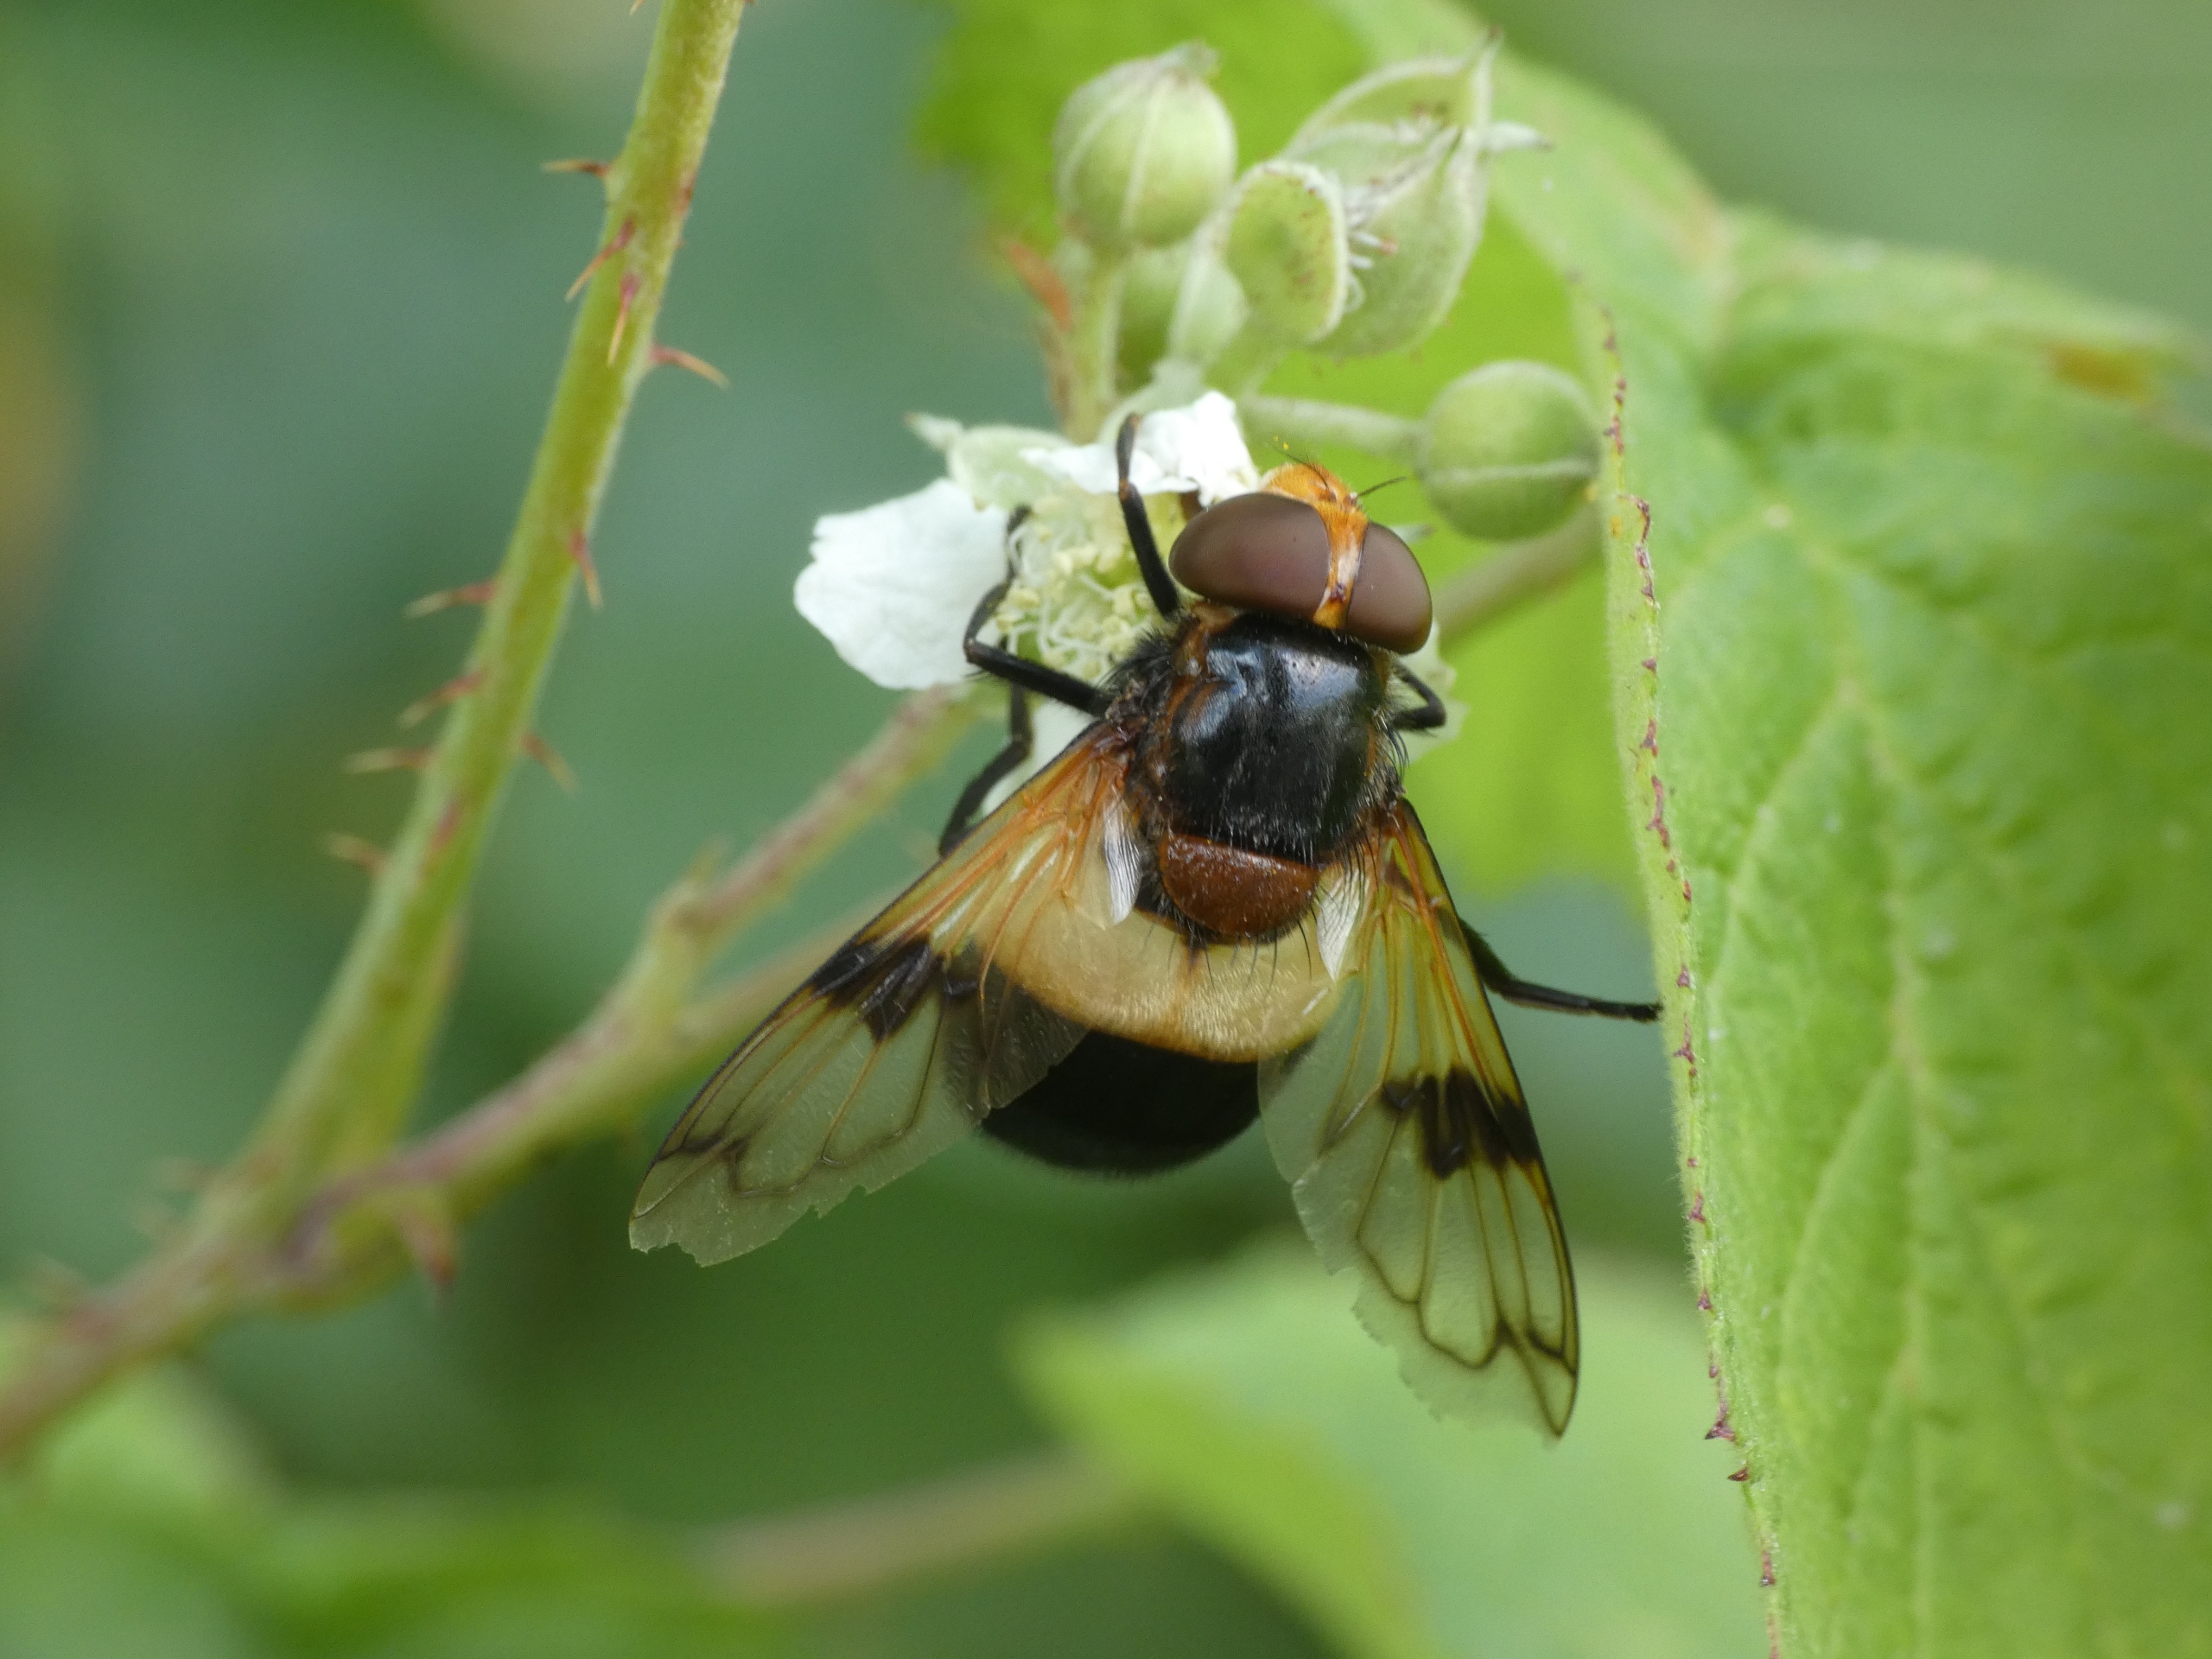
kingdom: Animalia
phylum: Arthropoda
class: Insecta
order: Diptera
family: Syrphidae
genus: Volucella
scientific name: Volucella pellucens
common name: Hvidbåndet humlesvirreflue
